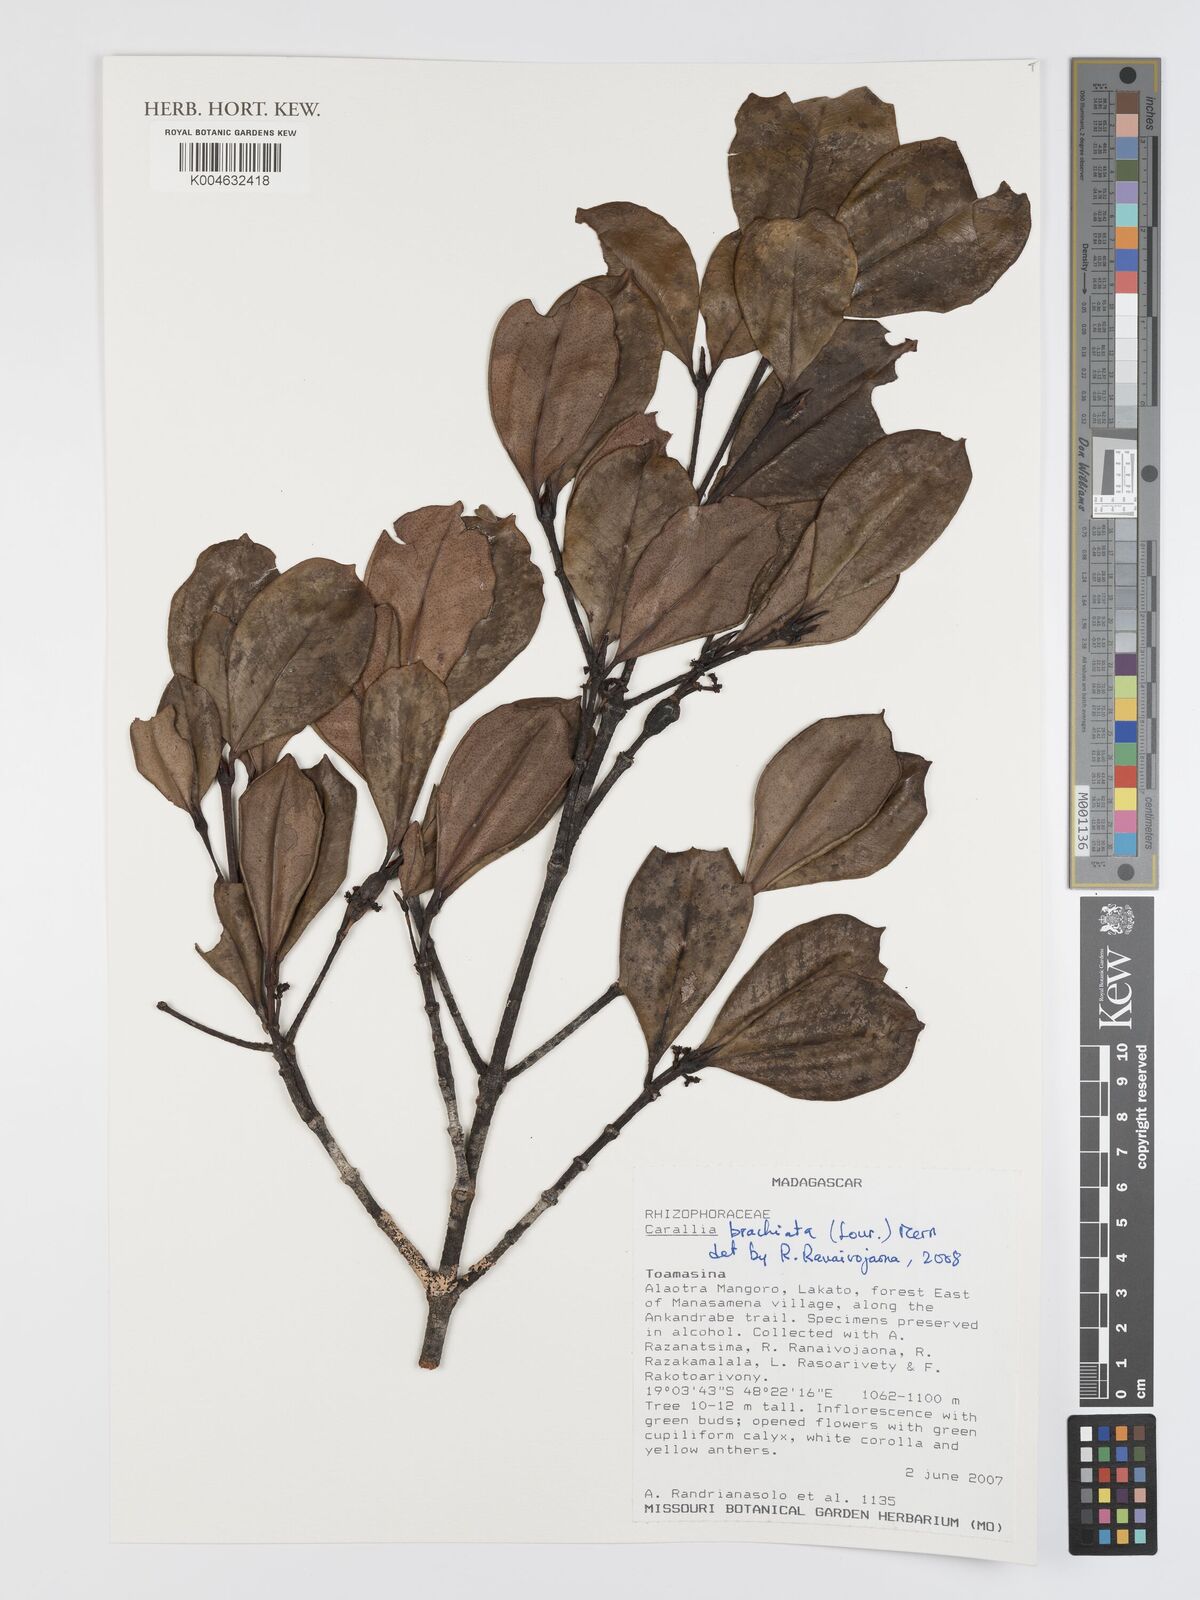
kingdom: Plantae
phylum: Tracheophyta
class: Magnoliopsida
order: Malpighiales
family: Rhizophoraceae
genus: Carallia
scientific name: Carallia brachiata
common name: Carallawood
